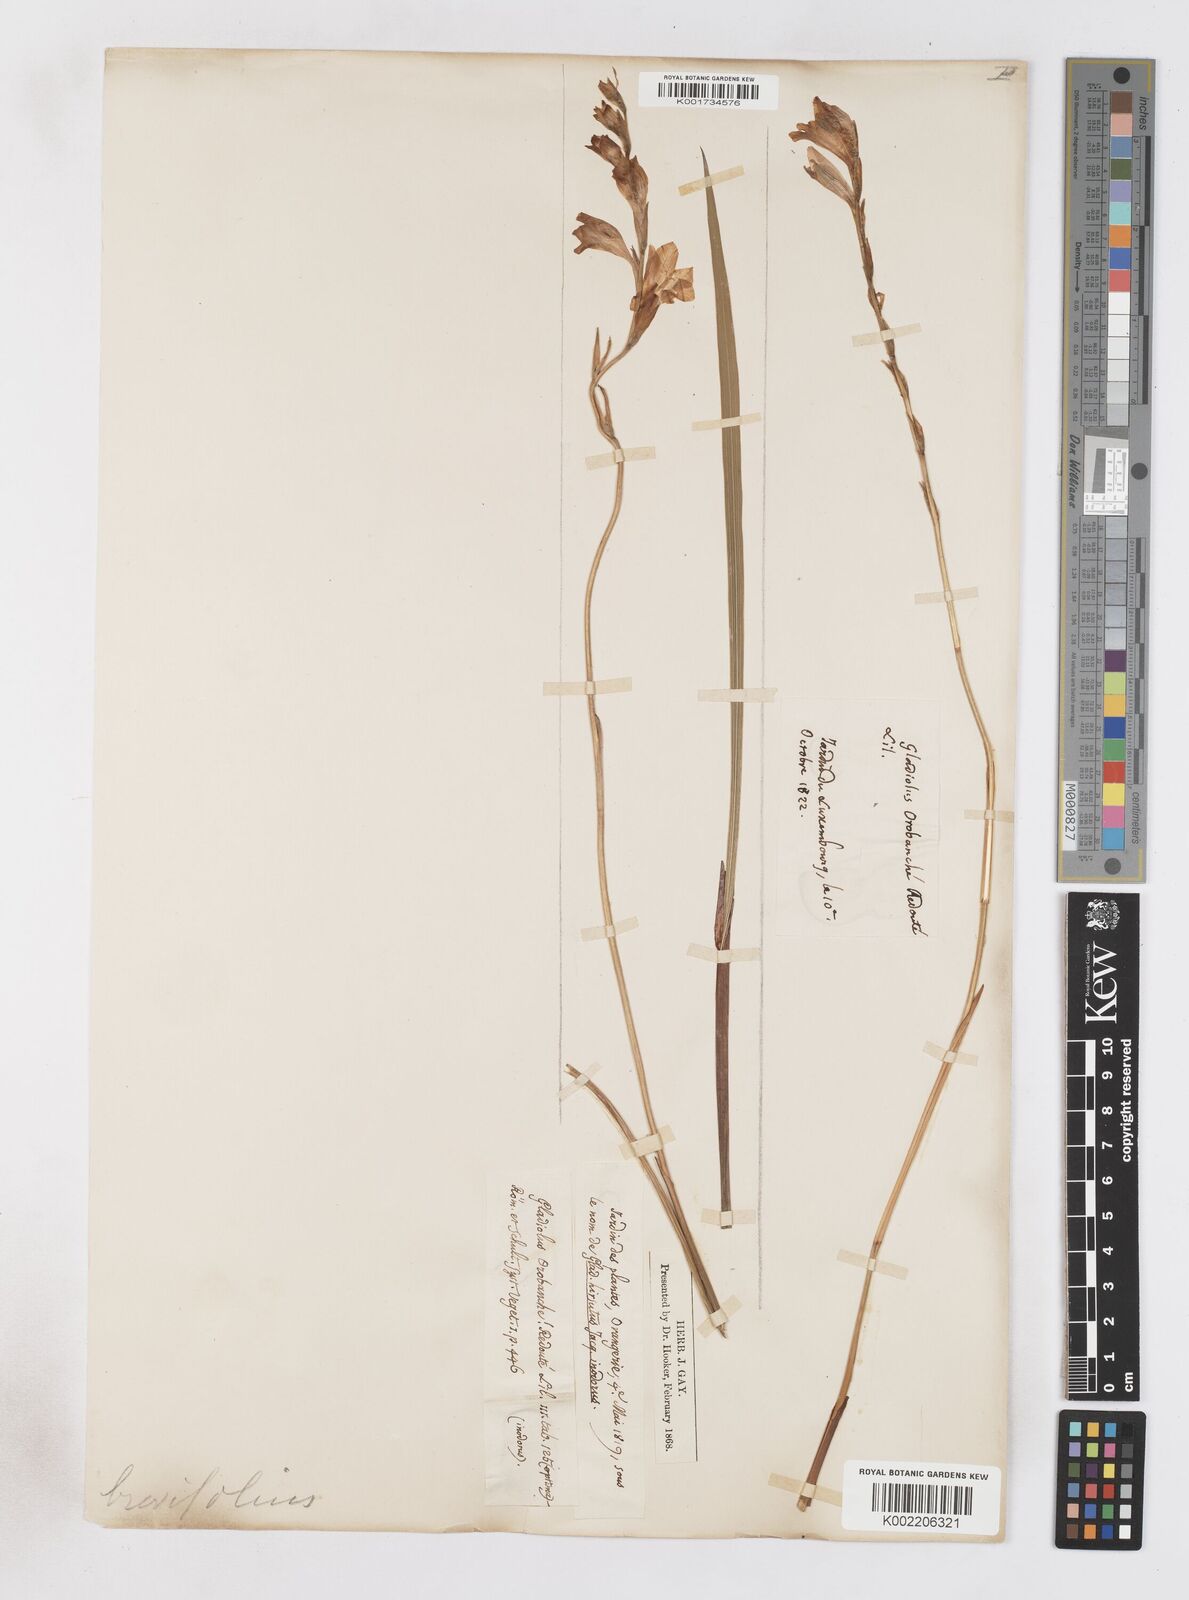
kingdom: Plantae
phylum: Tracheophyta
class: Liliopsida
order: Asparagales
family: Iridaceae
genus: Gladiolus
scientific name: Gladiolus brevifolius
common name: March pypie
